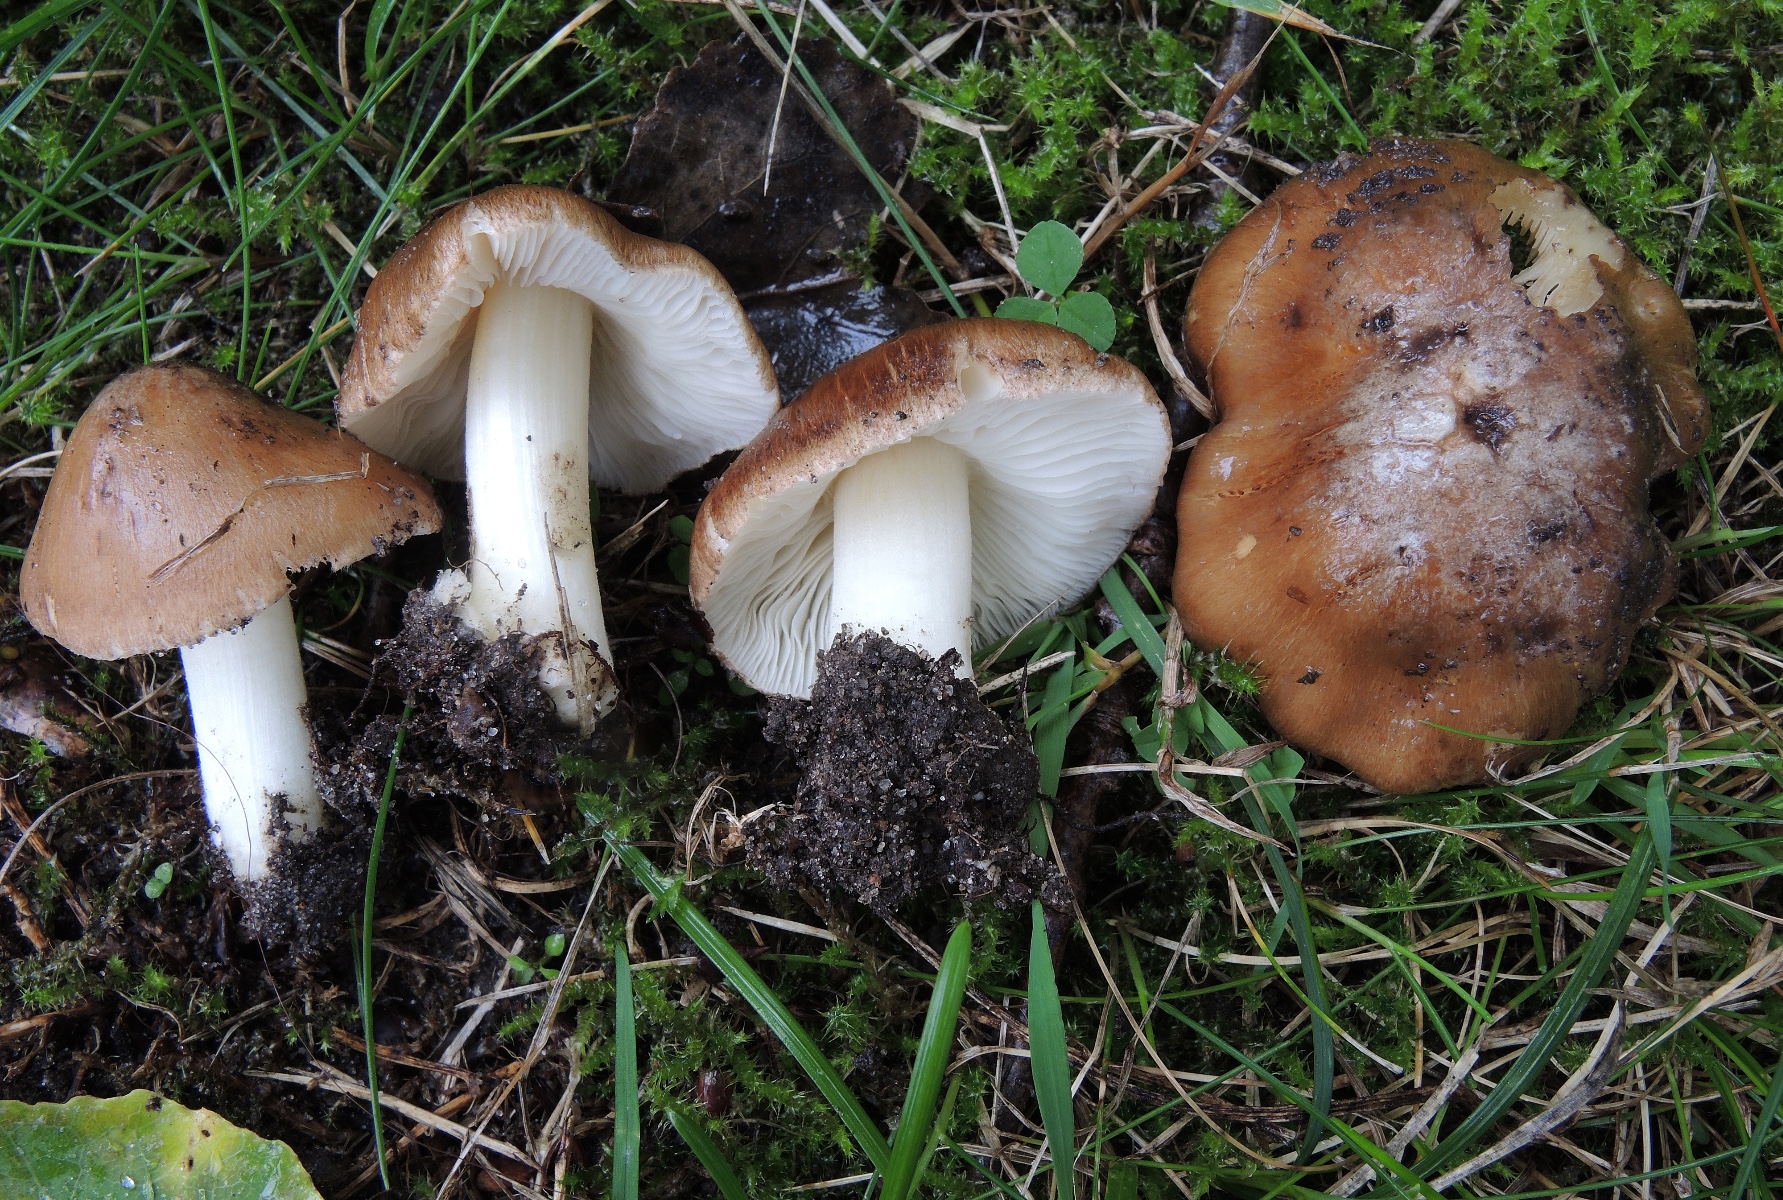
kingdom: Fungi
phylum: Basidiomycota
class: Agaricomycetes
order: Agaricales
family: Inocybaceae
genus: Inocybe
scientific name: Inocybe splendens
